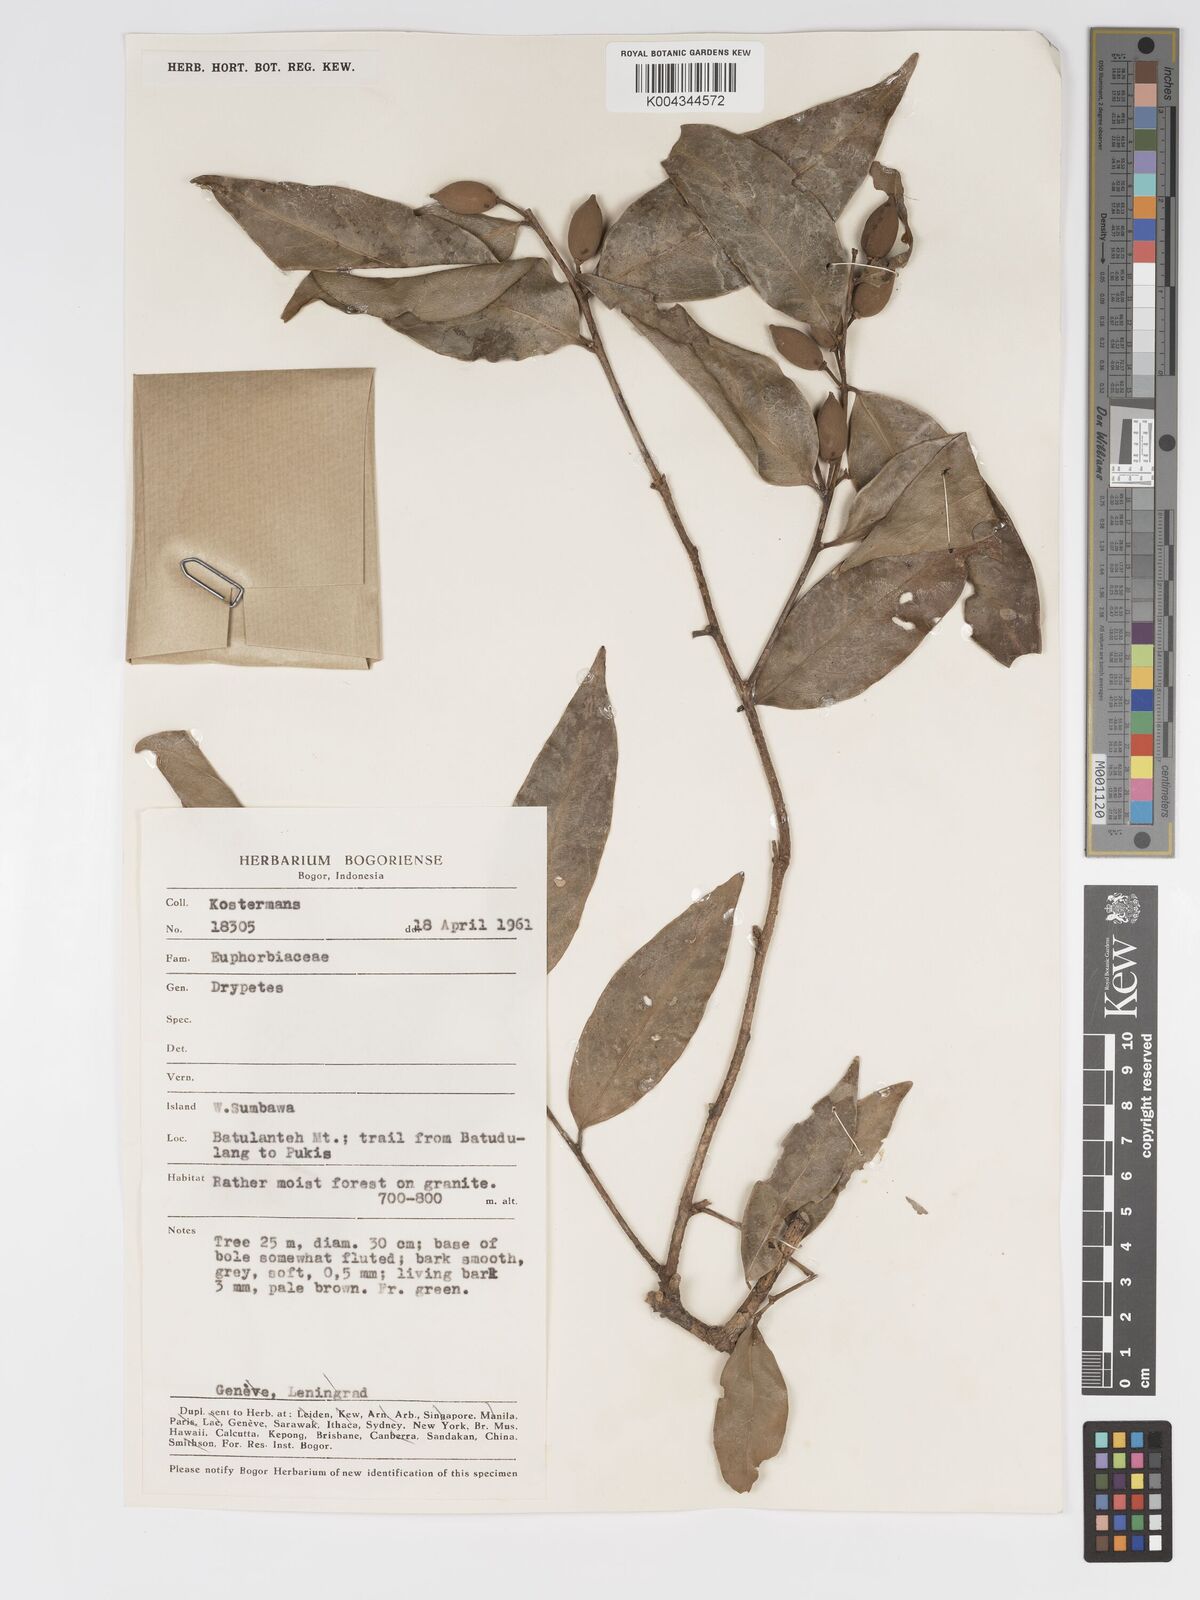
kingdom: Plantae
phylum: Tracheophyta
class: Magnoliopsida
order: Malpighiales
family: Putranjivaceae
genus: Drypetes
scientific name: Drypetes neglecta
